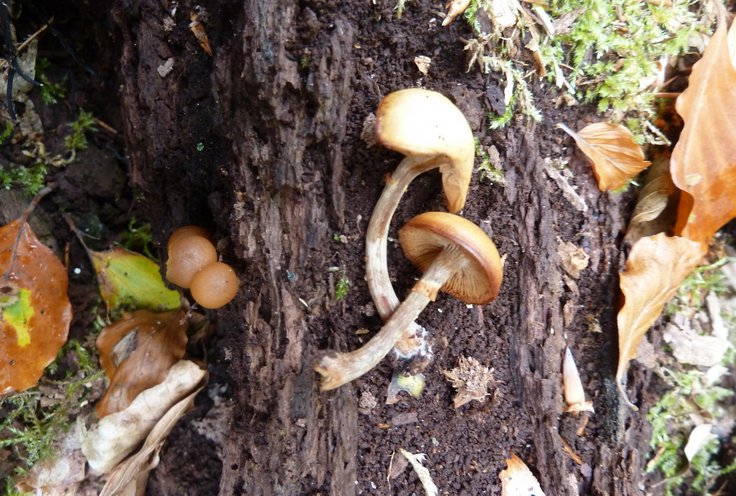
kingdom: Fungi
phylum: Basidiomycota
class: Agaricomycetes
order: Agaricales
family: Hymenogastraceae
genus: Galerina
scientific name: Galerina marginata
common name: randbæltet hjelmhat
